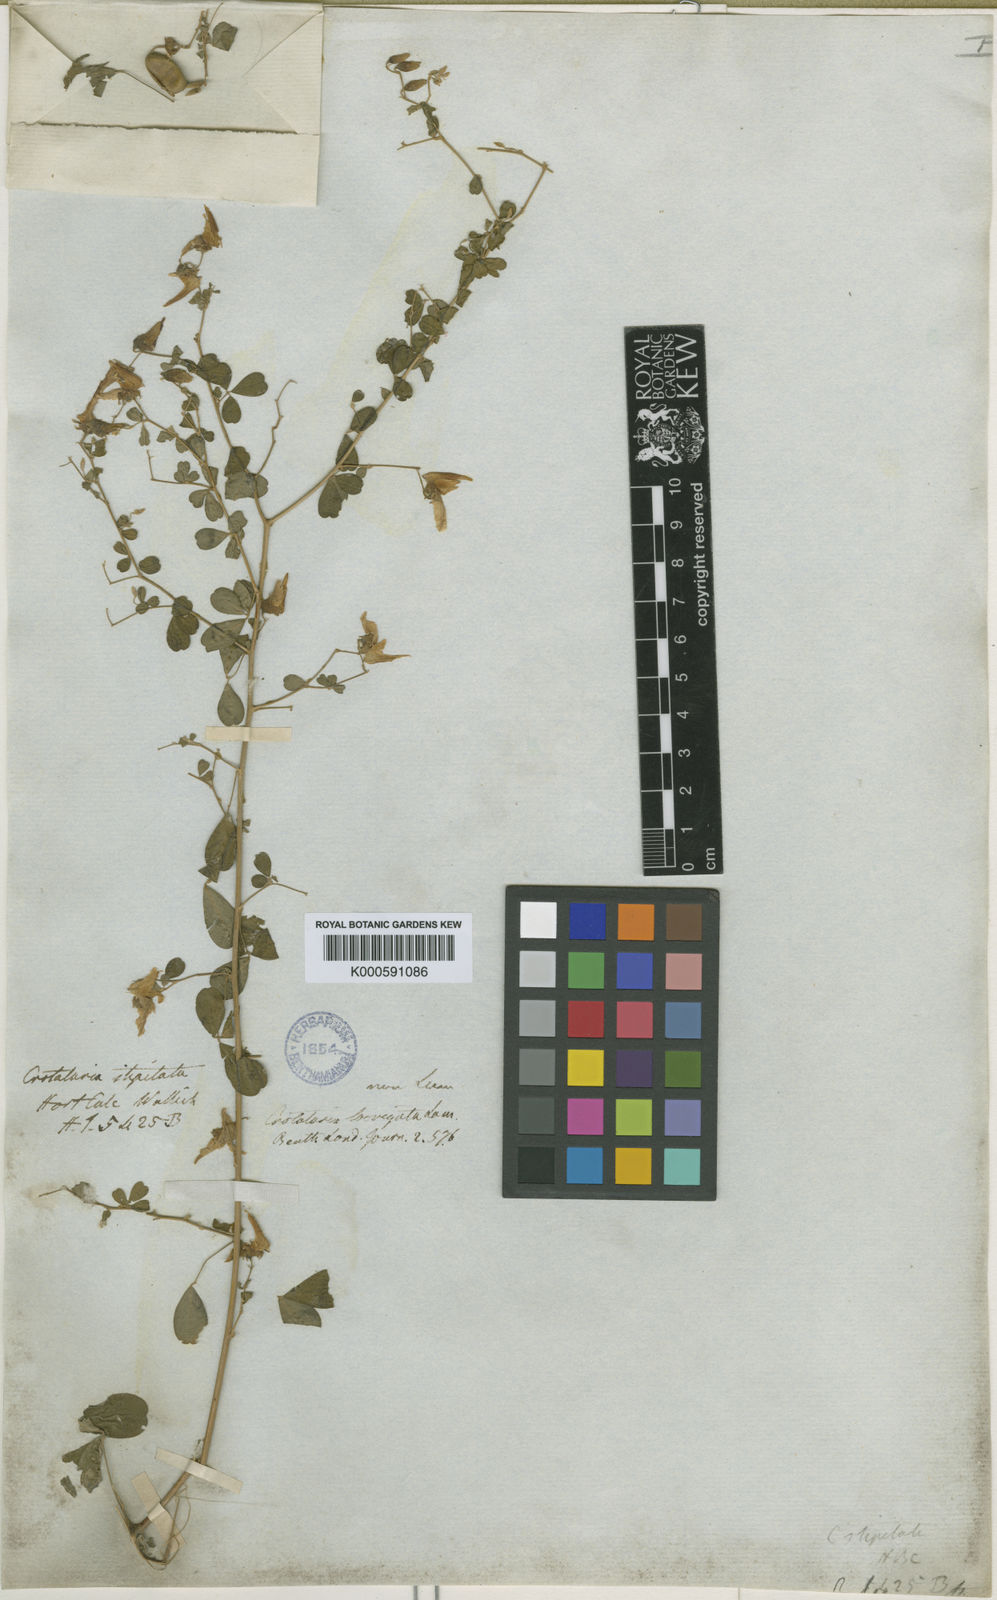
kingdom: Plantae
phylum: Tracheophyta
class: Magnoliopsida
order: Fabales
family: Fabaceae
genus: Crotalaria
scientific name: Crotalaria laevigata
